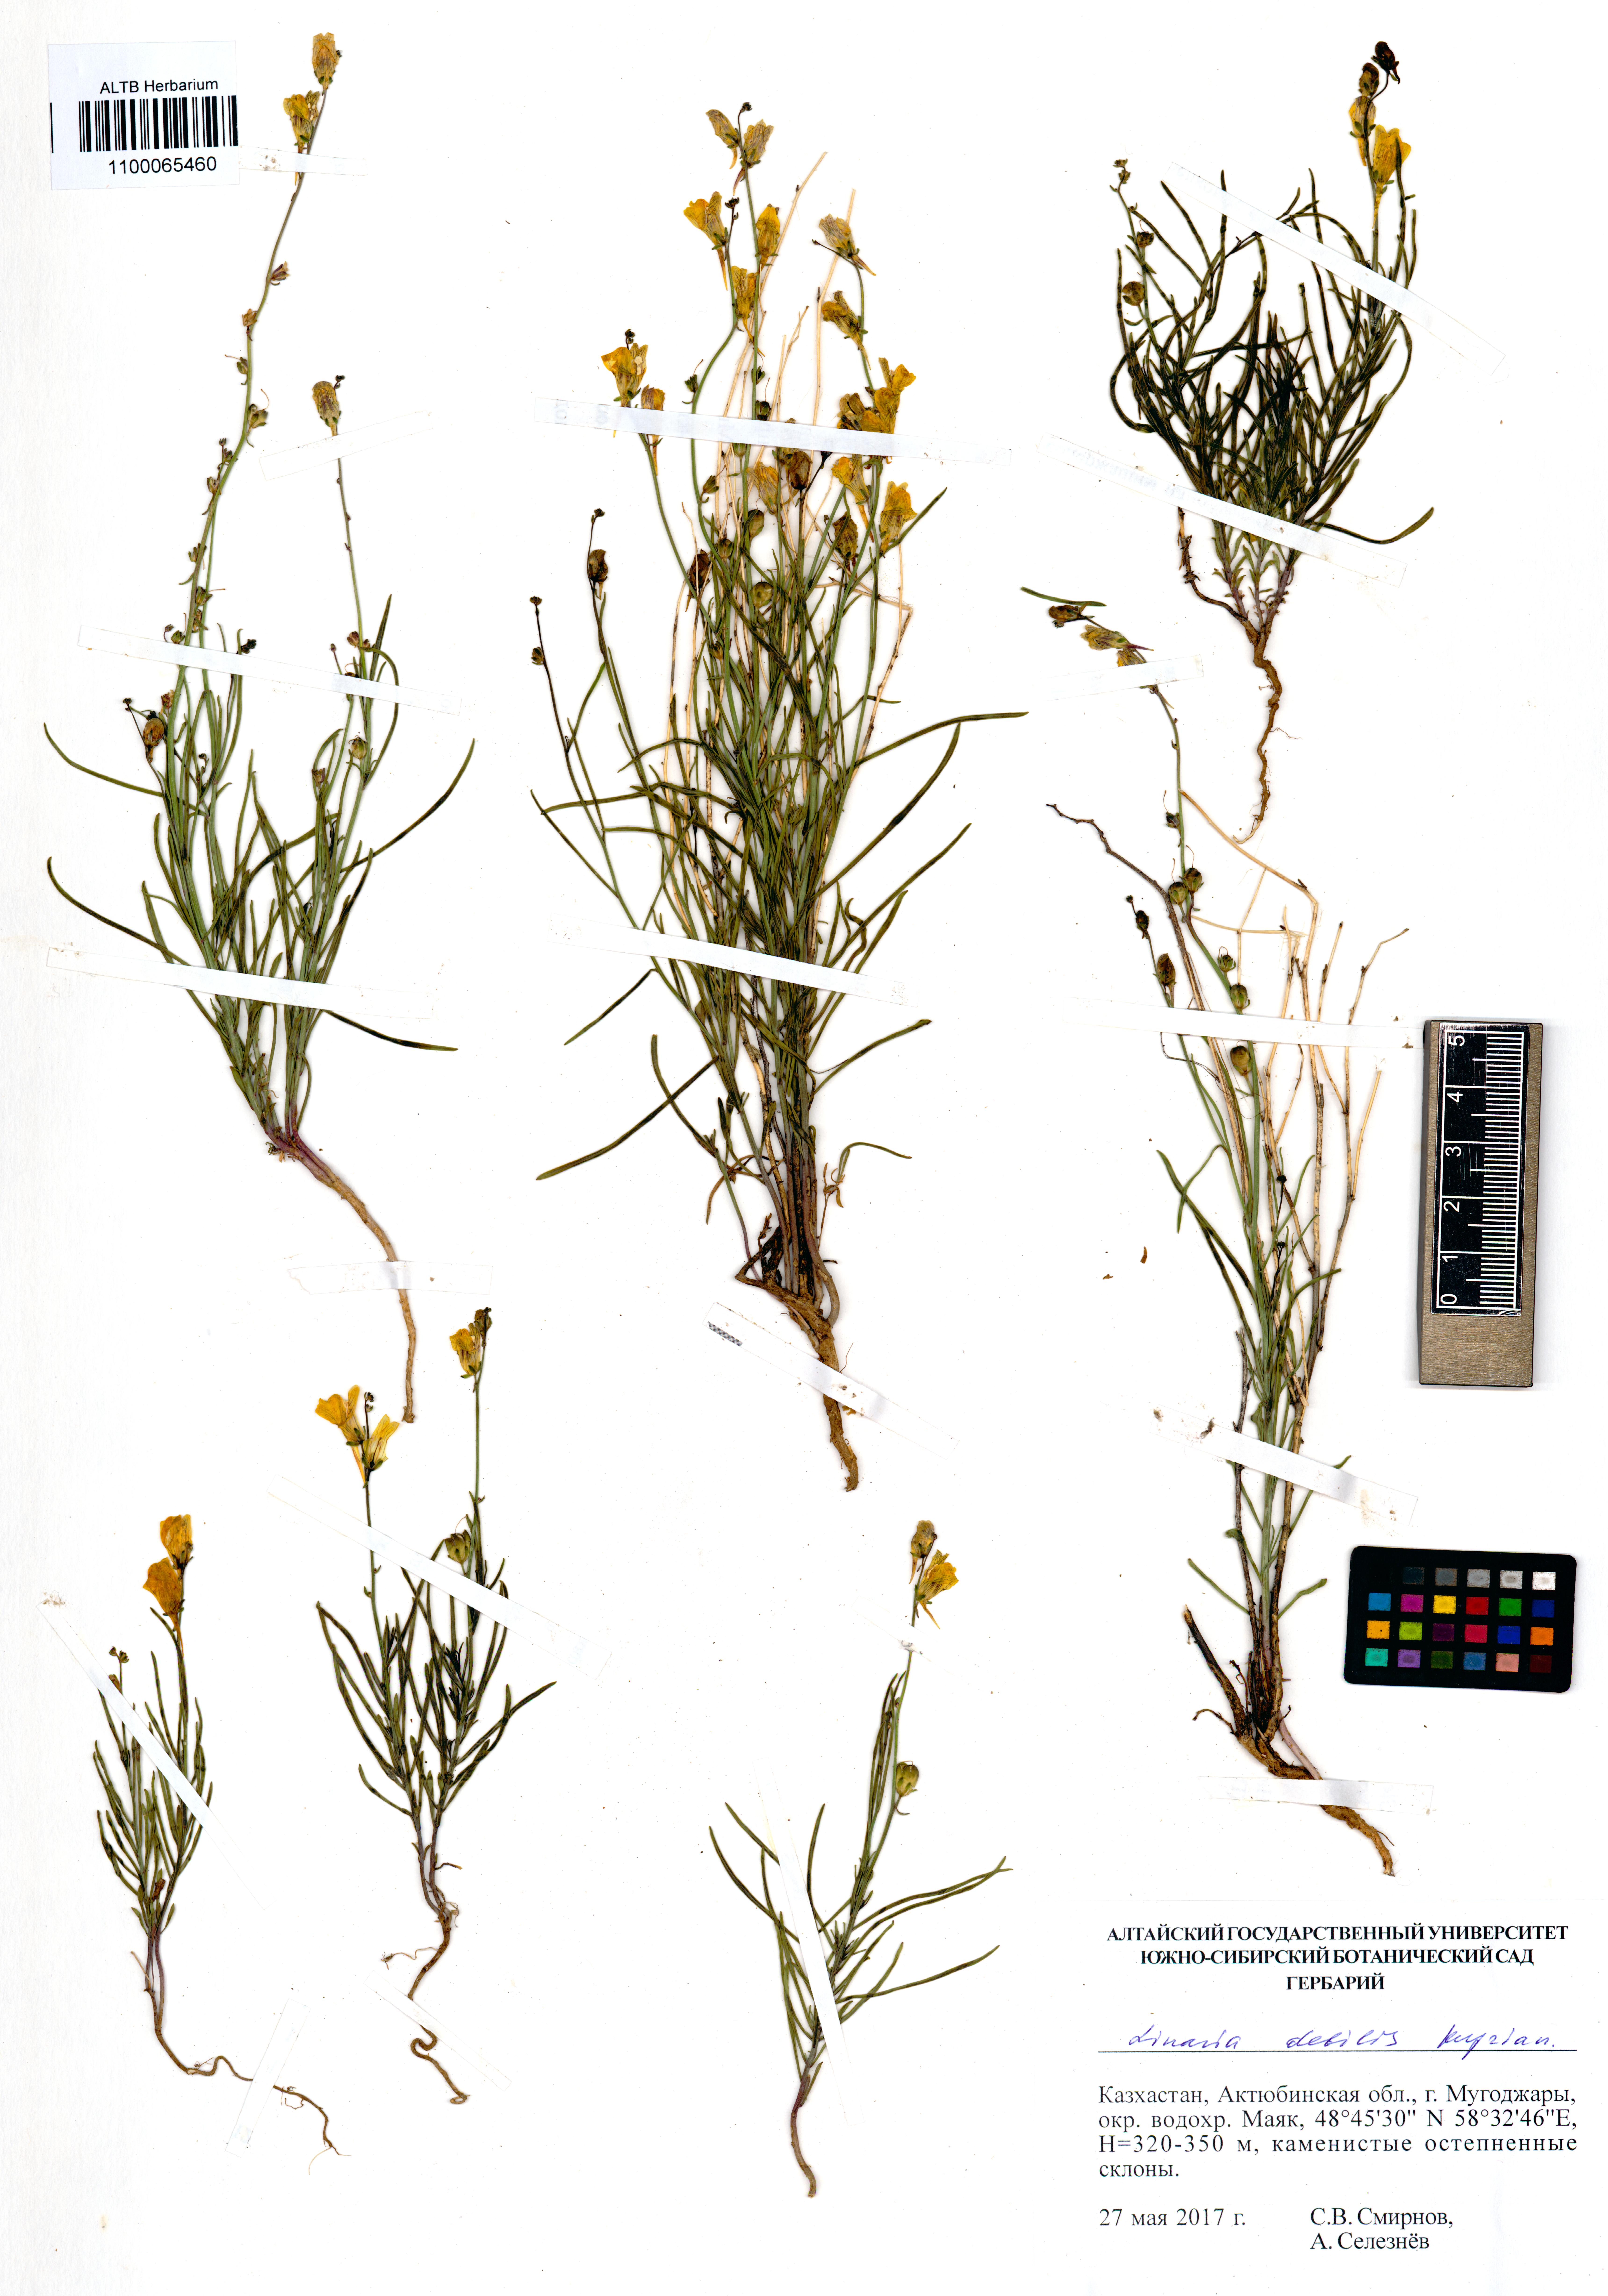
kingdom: Plantae
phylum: Tracheophyta
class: Magnoliopsida
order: Lamiales
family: Plantaginaceae
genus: Linaria
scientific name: Linaria altaica
